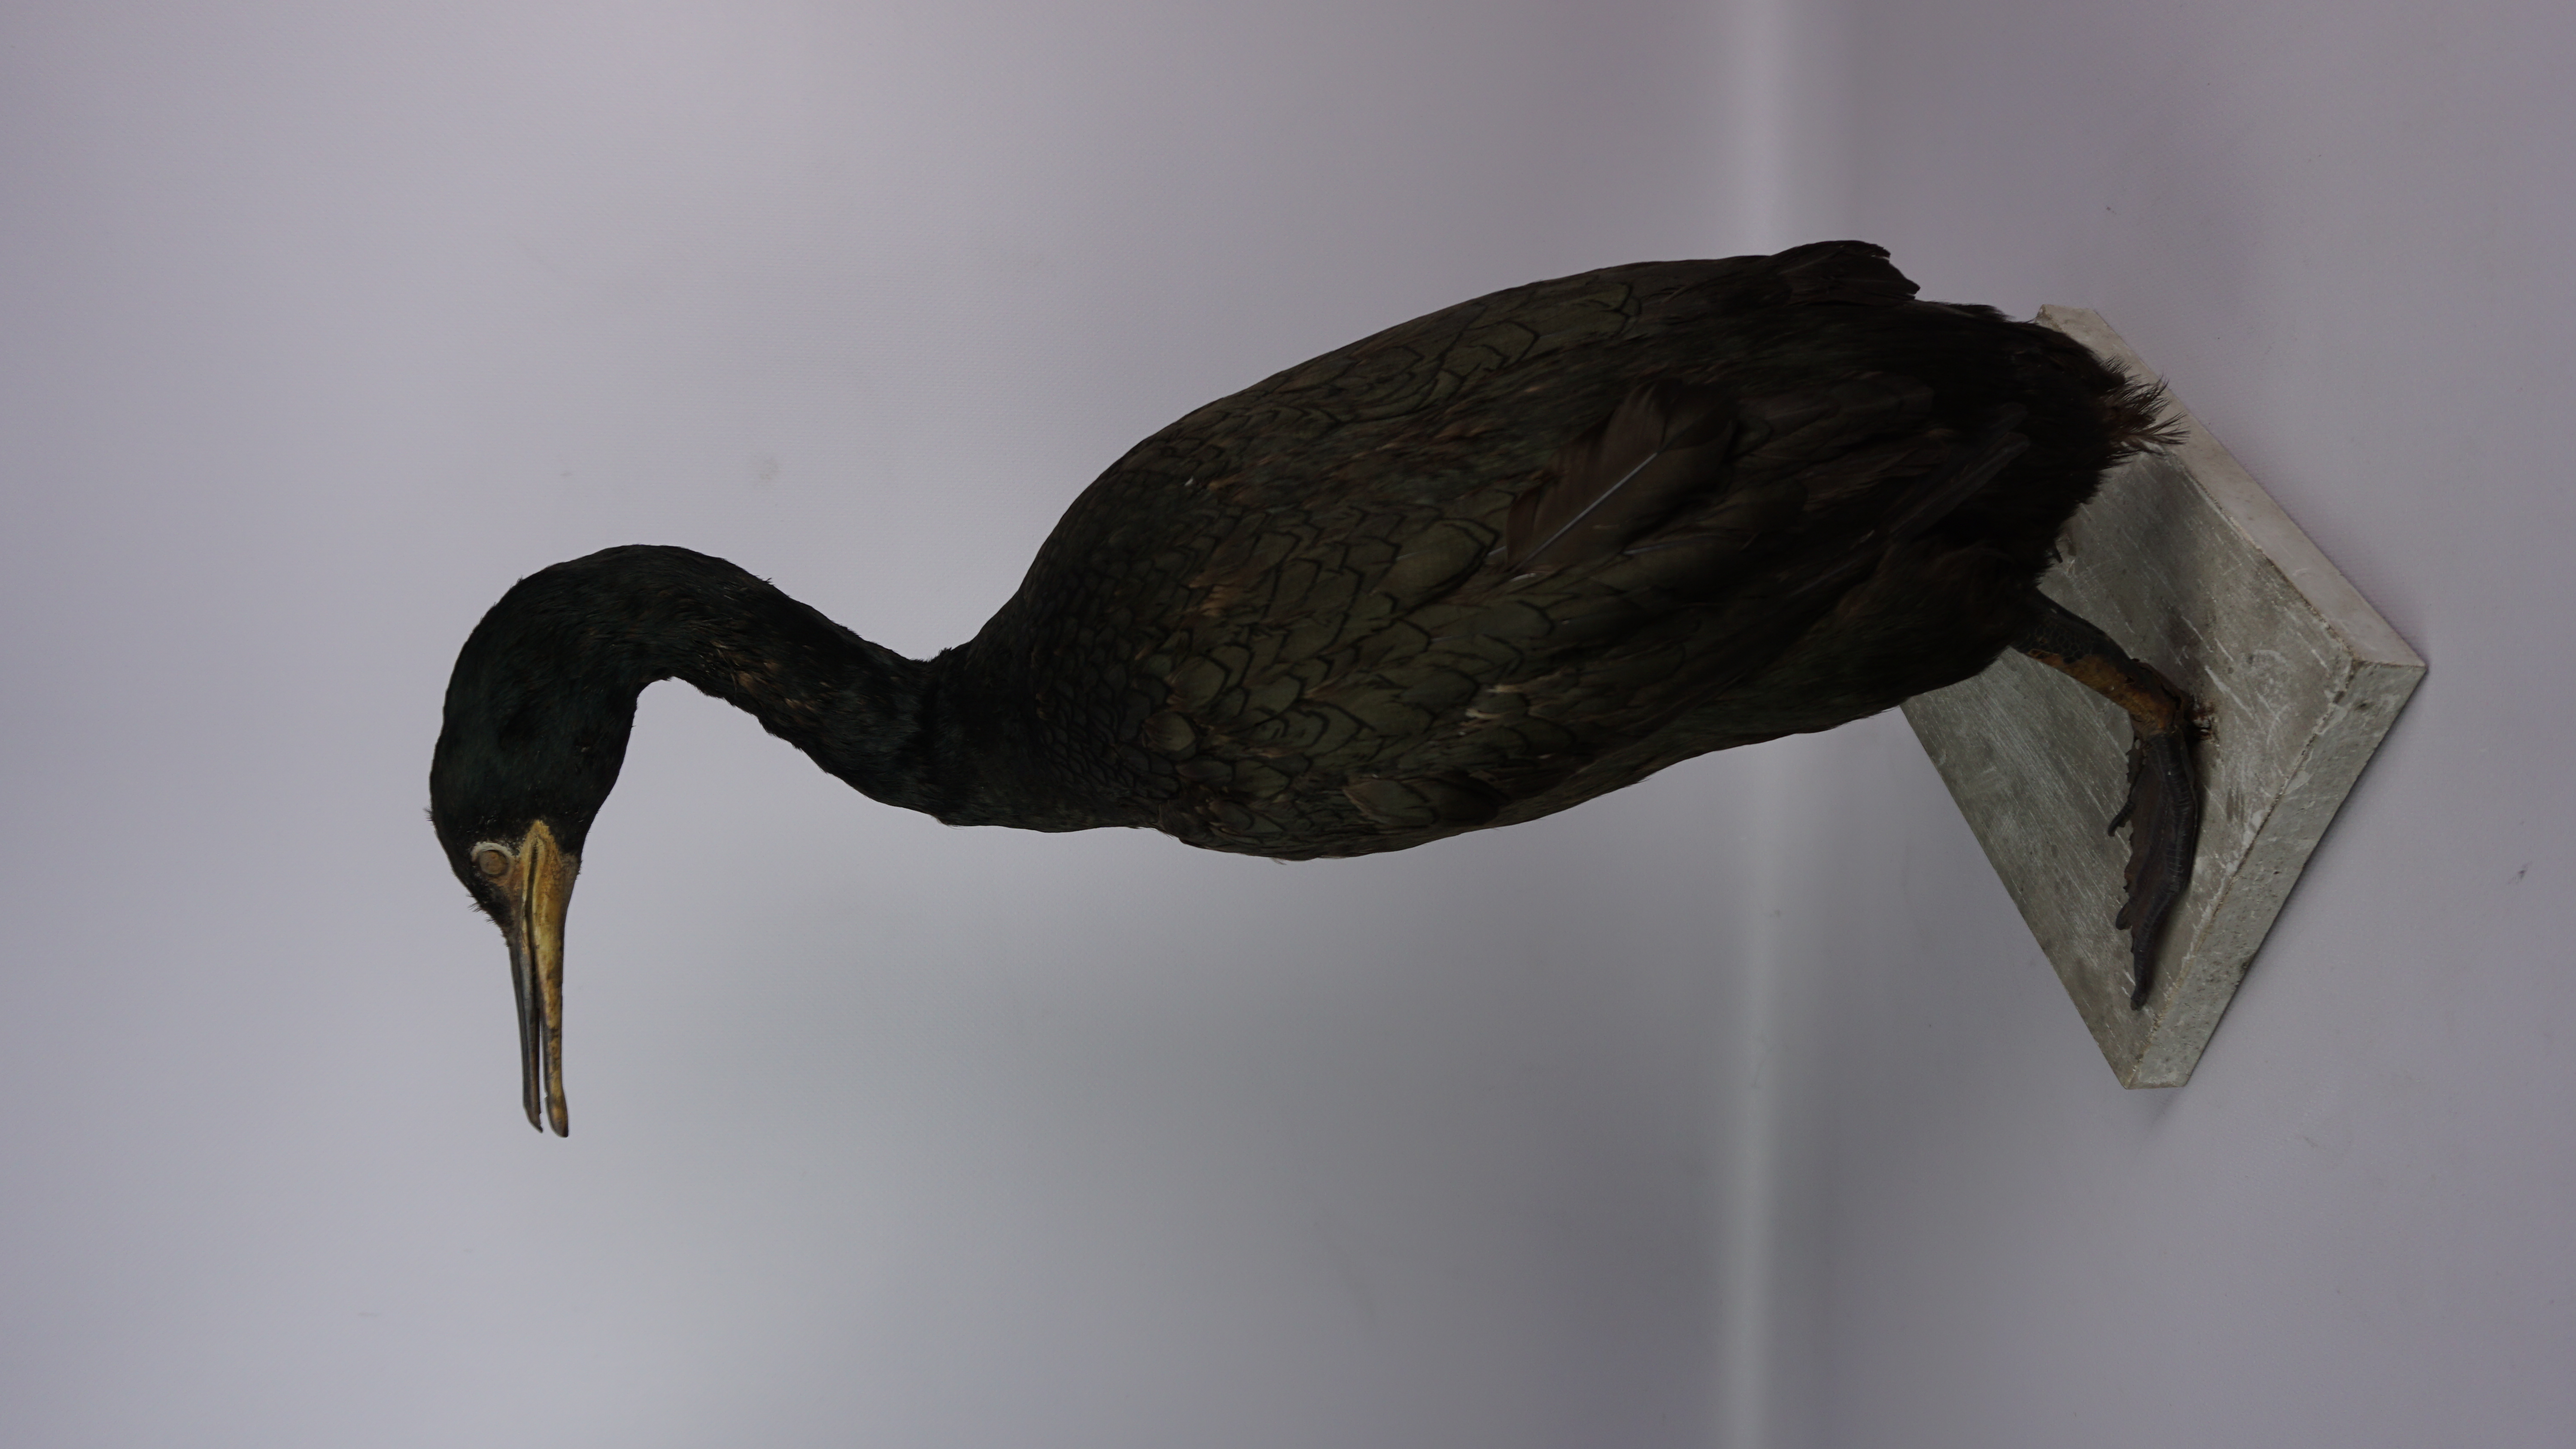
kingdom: Animalia
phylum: Chordata
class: Aves
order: Suliformes
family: Phalacrocoracidae
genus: Phalacrocorax
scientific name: Phalacrocorax aristotelis
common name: European shag
